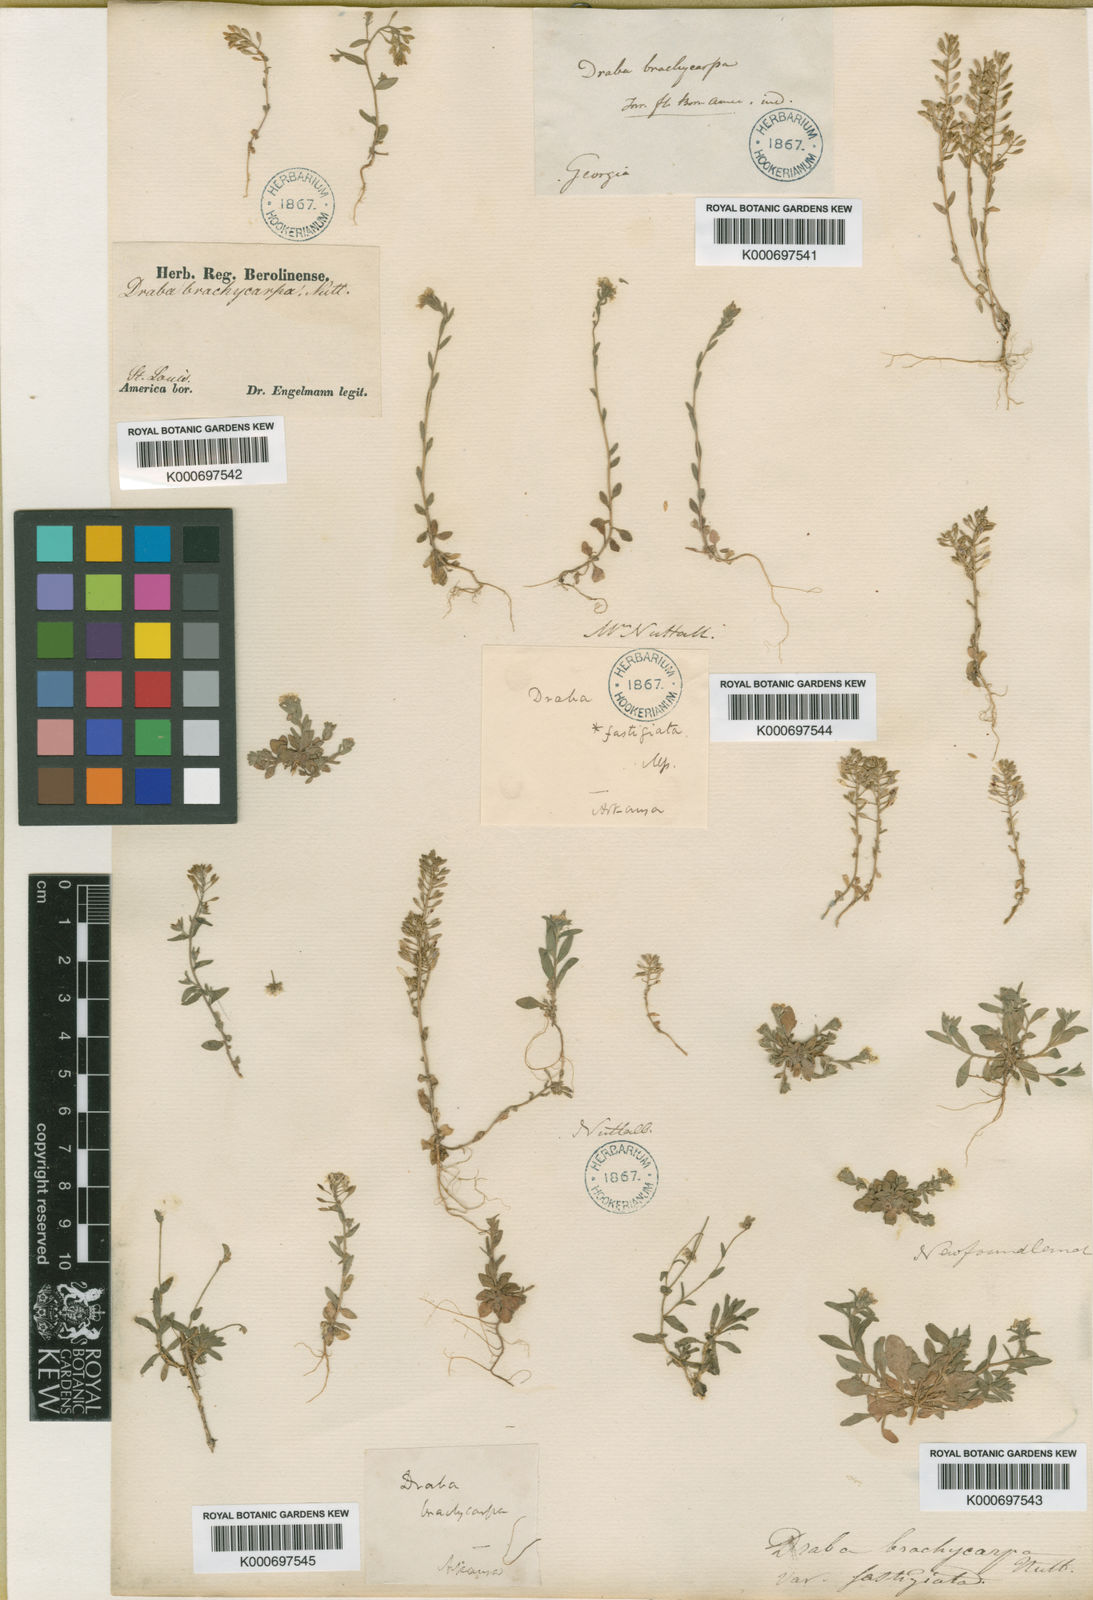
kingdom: Plantae
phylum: Tracheophyta
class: Magnoliopsida
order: Brassicales
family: Brassicaceae
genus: Draba
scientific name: Draba
